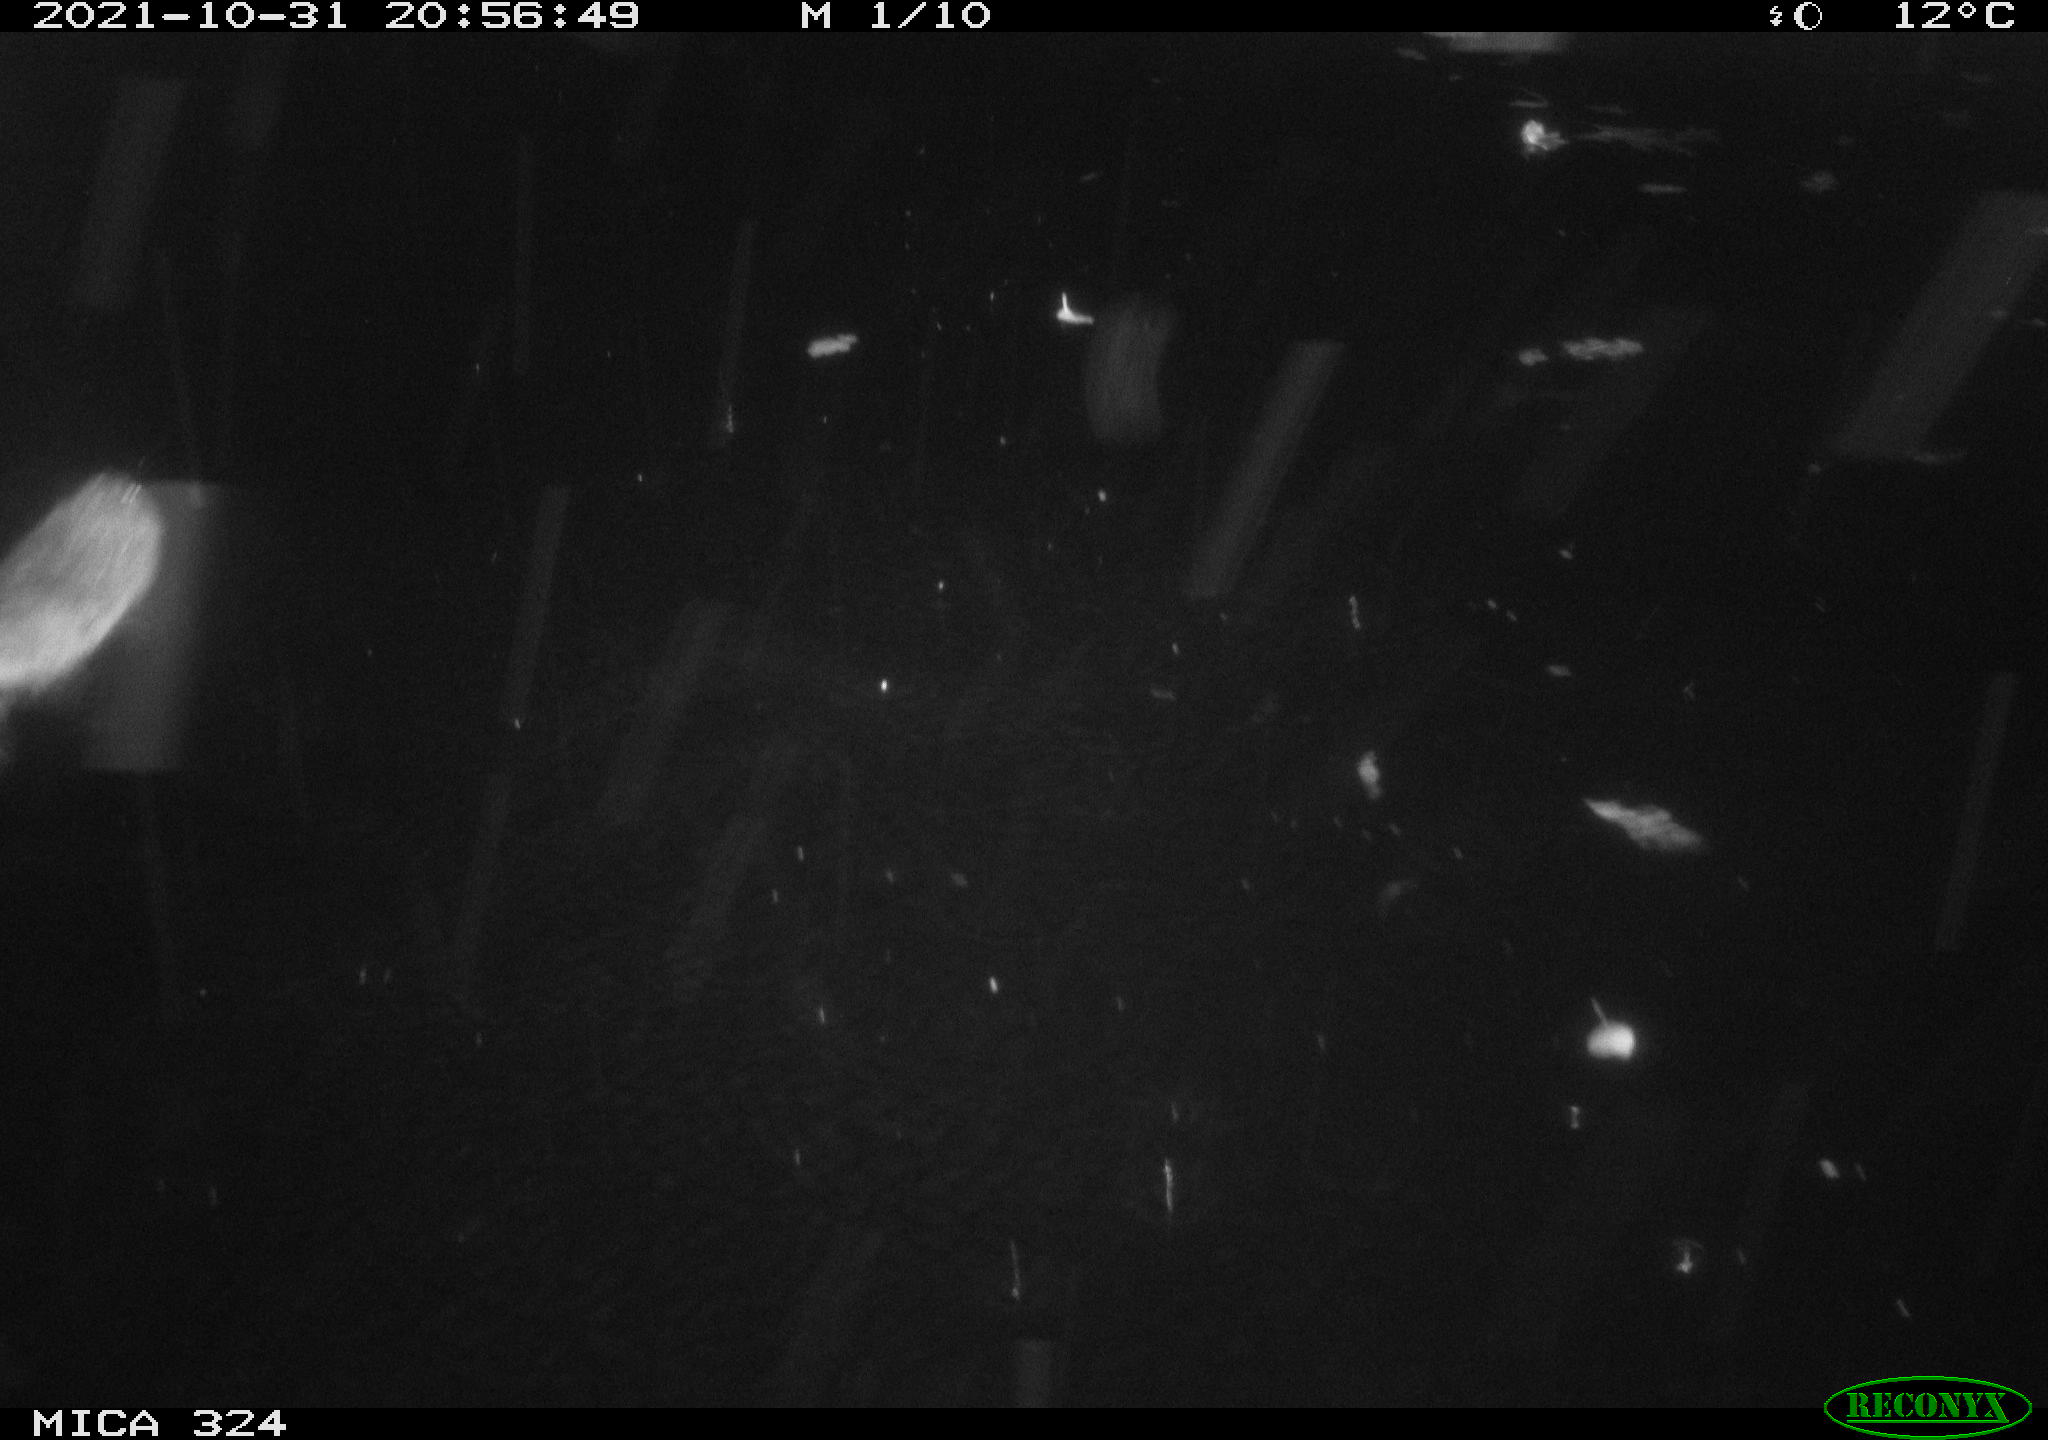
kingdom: Animalia
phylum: Chordata
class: Mammalia
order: Rodentia
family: Cricetidae
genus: Ondatra
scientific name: Ondatra zibethicus
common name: Muskrat
